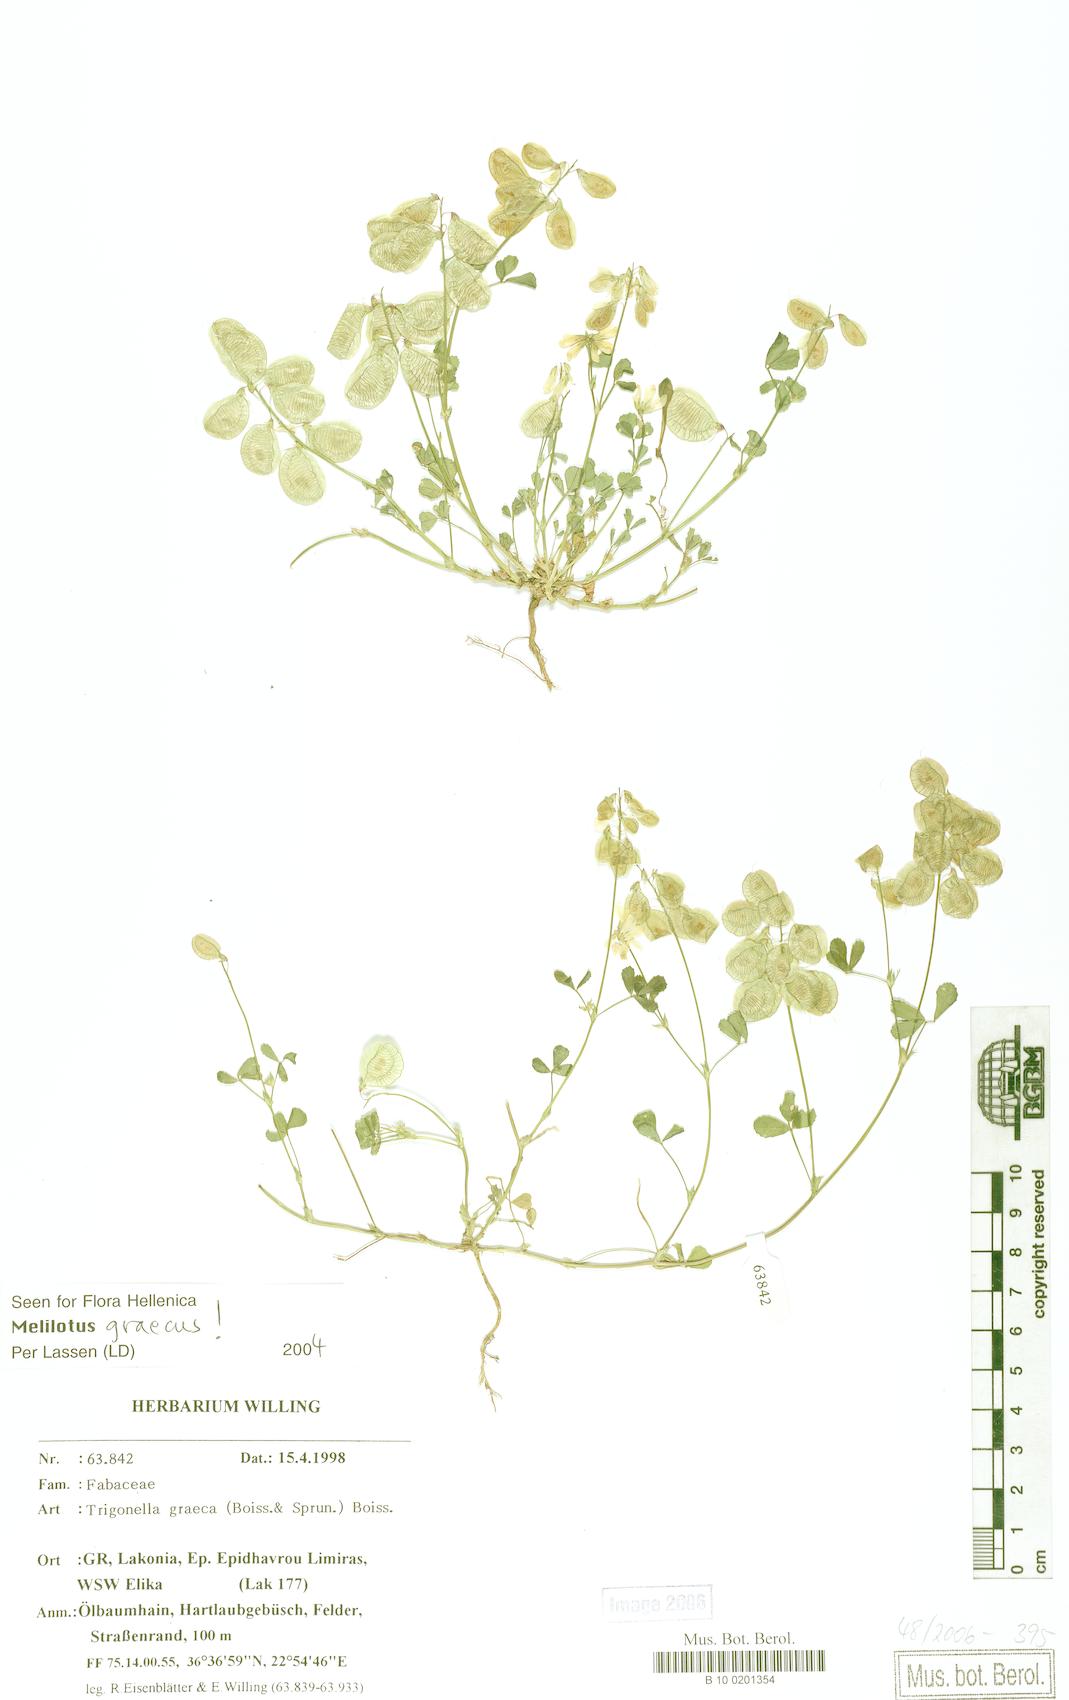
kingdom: Plantae
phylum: Tracheophyta
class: Magnoliopsida
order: Fabales
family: Fabaceae
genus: Trigonella
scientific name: Trigonella graeca
